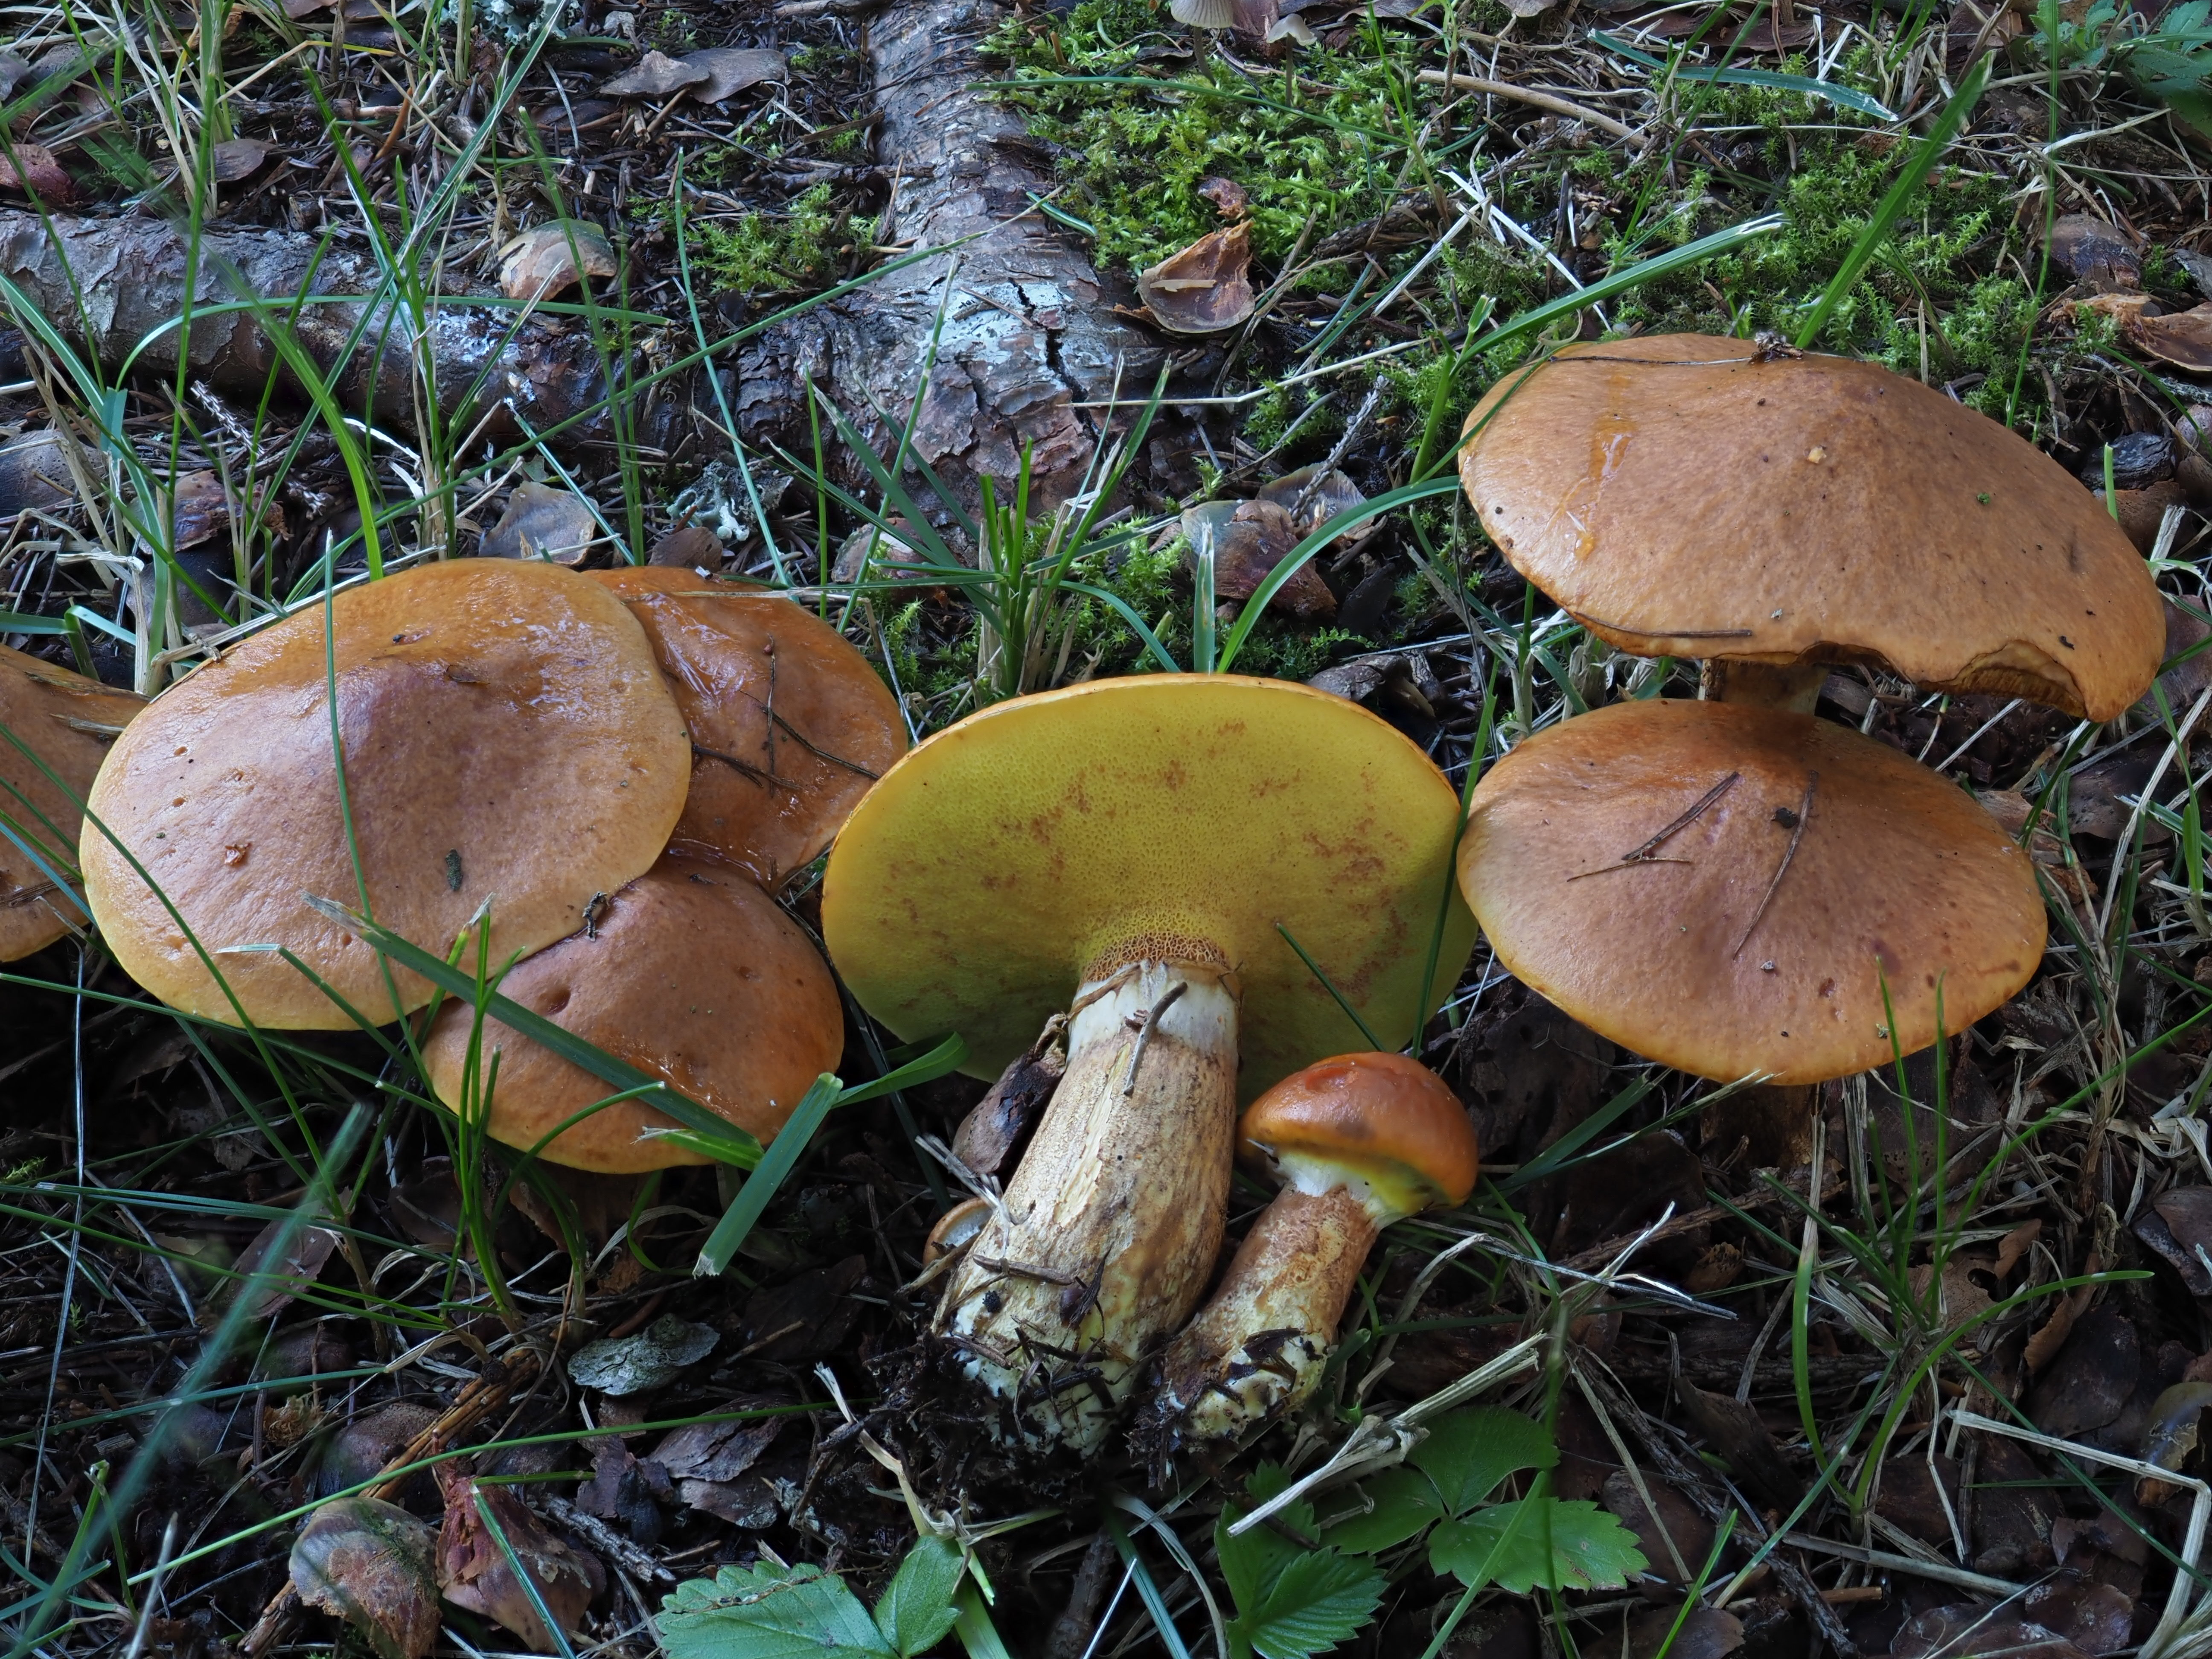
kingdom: Fungi
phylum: Basidiomycota
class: Agaricomycetes
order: Boletales
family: Suillaceae
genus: Suillus
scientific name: Suillus grevillei
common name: Larch bolete
